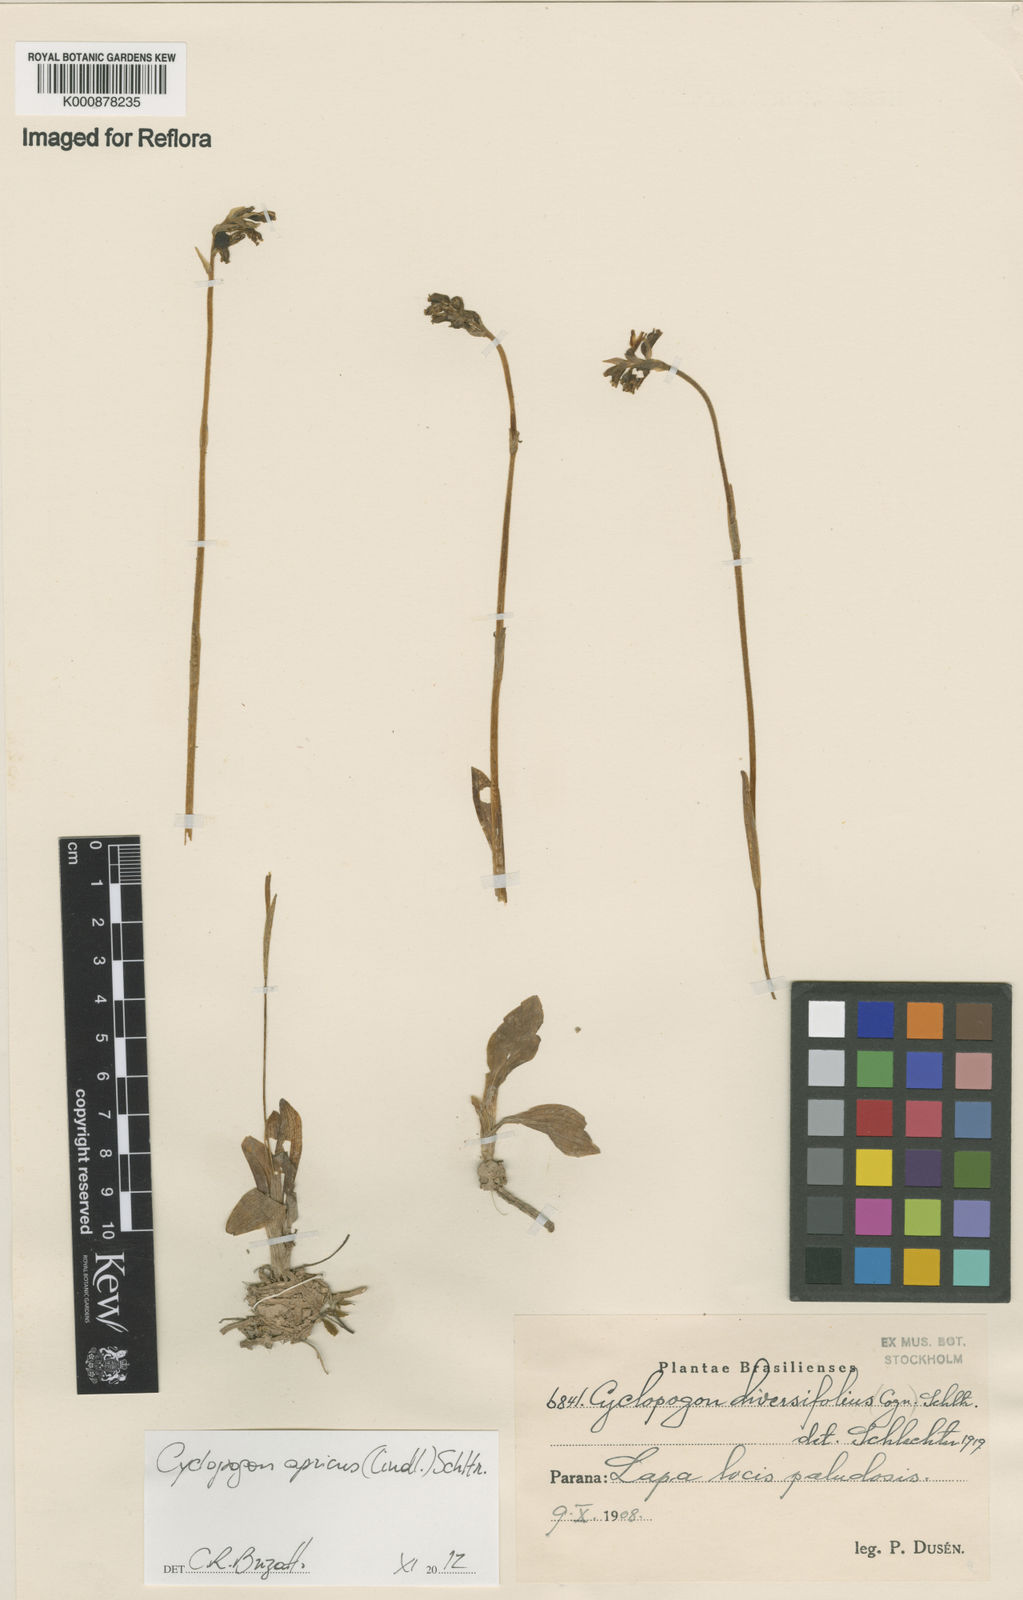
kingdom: Plantae
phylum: Tracheophyta
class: Liliopsida
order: Asparagales
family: Orchidaceae
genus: Cyclopogon
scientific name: Cyclopogon apricus
